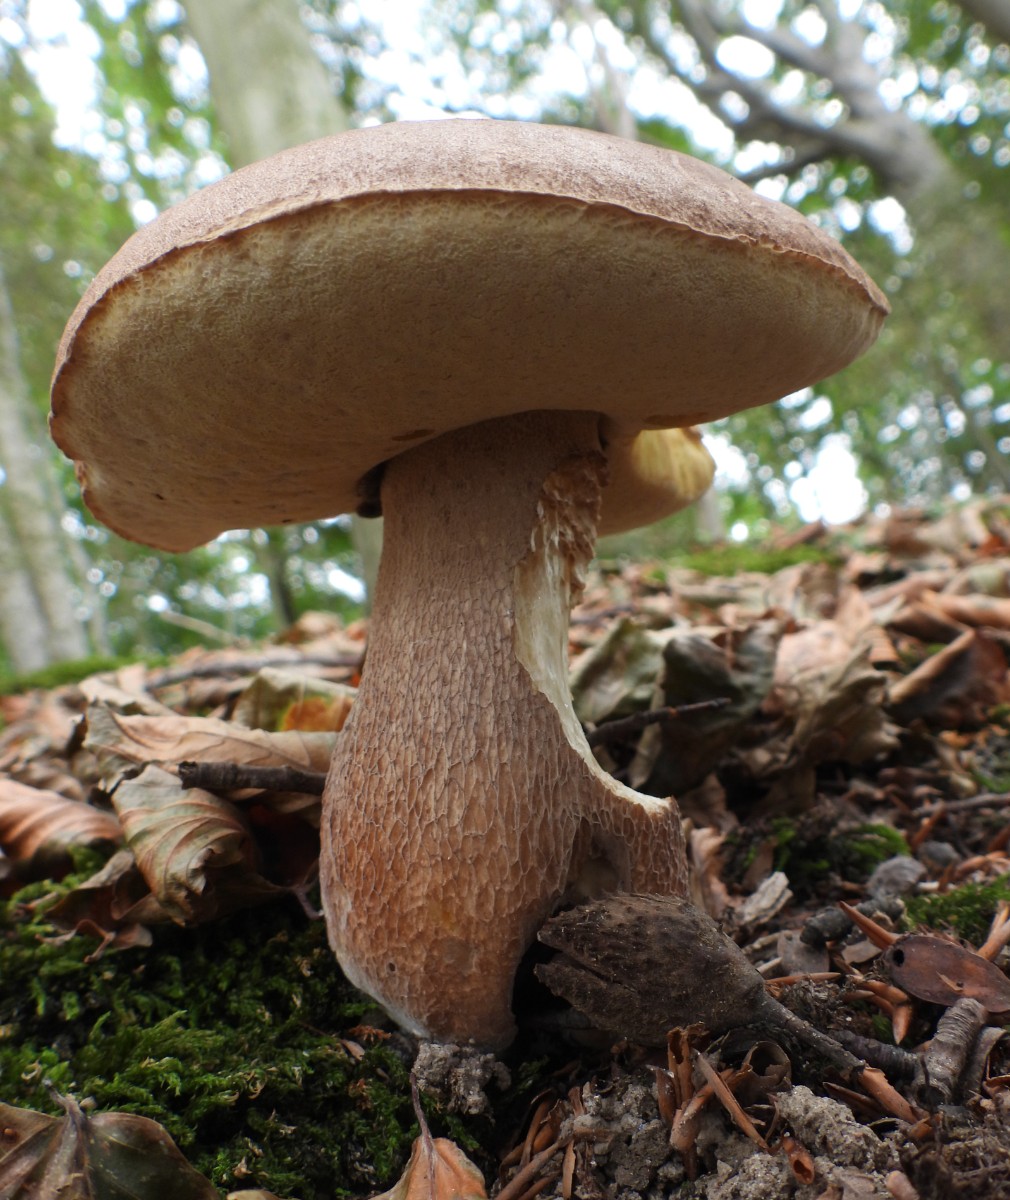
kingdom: Fungi
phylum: Basidiomycota
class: Agaricomycetes
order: Boletales
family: Boletaceae
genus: Boletus
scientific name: Boletus reticulatus
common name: sommer-rørhat
